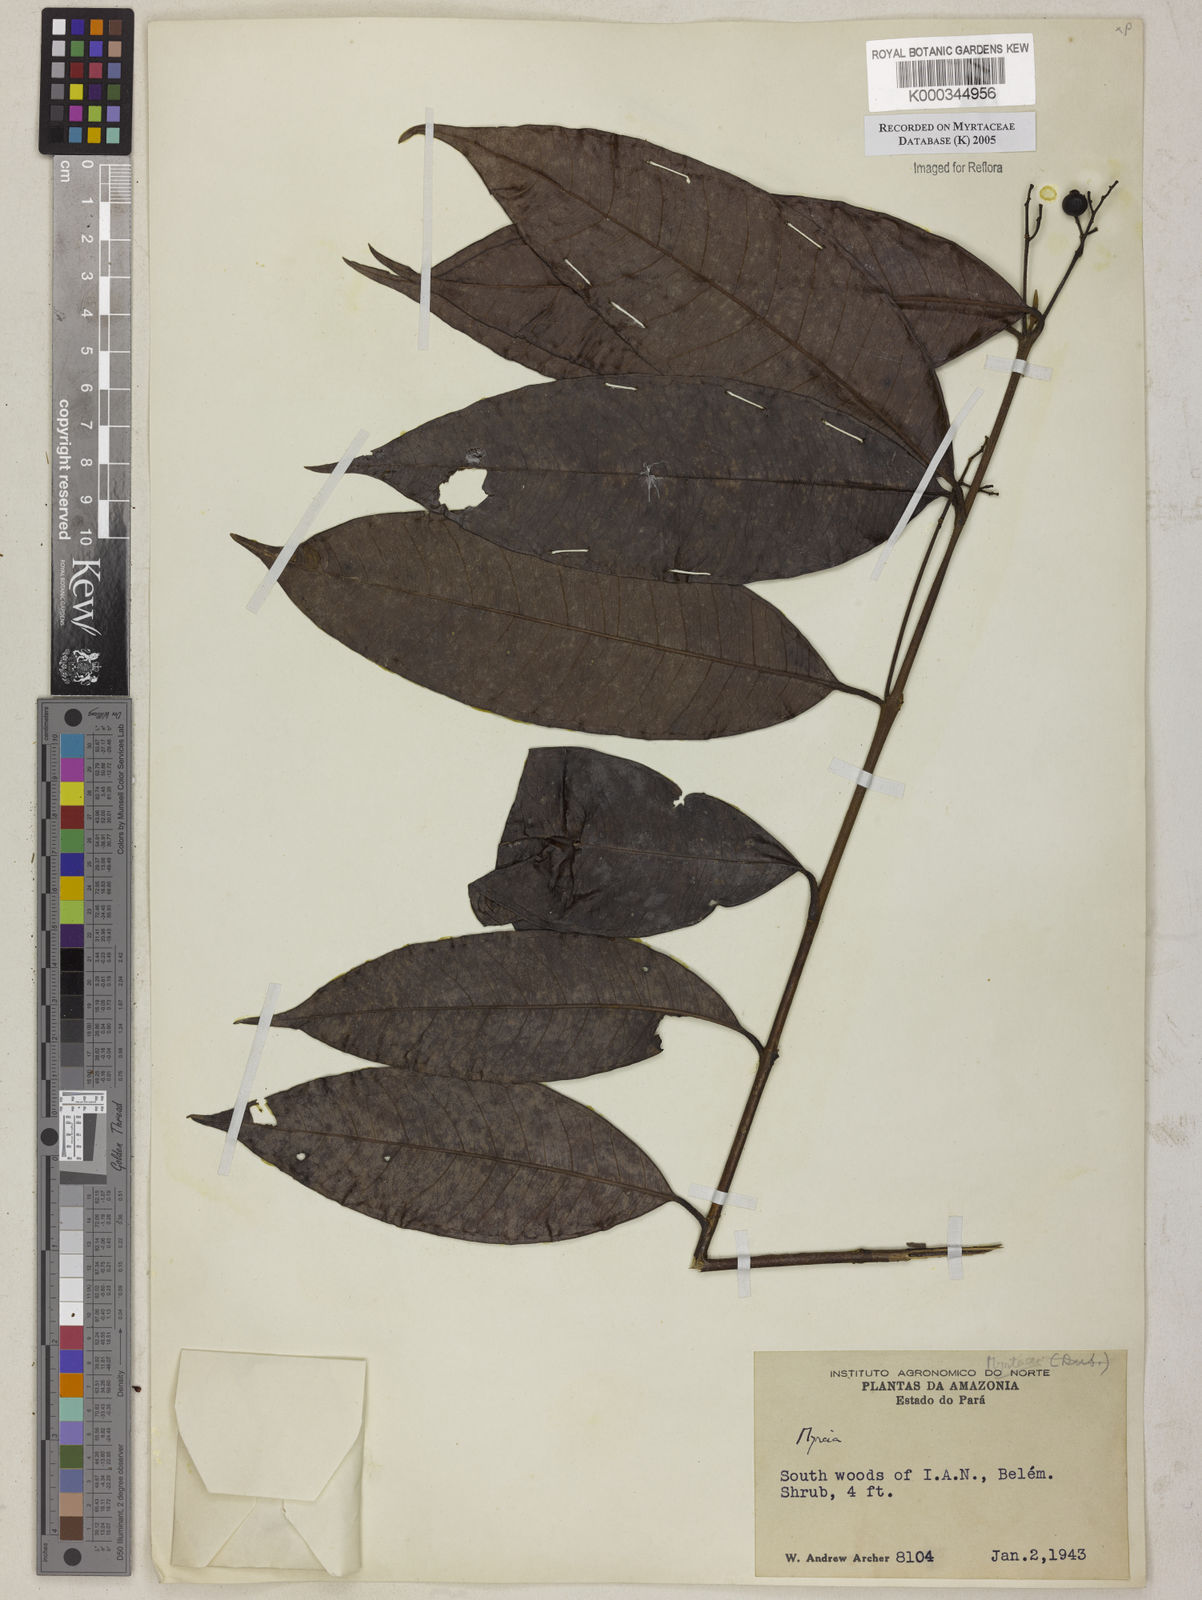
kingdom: Plantae
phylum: Tracheophyta
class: Magnoliopsida
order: Myrtales
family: Myrtaceae
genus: Myrcia
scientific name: Myrcia
